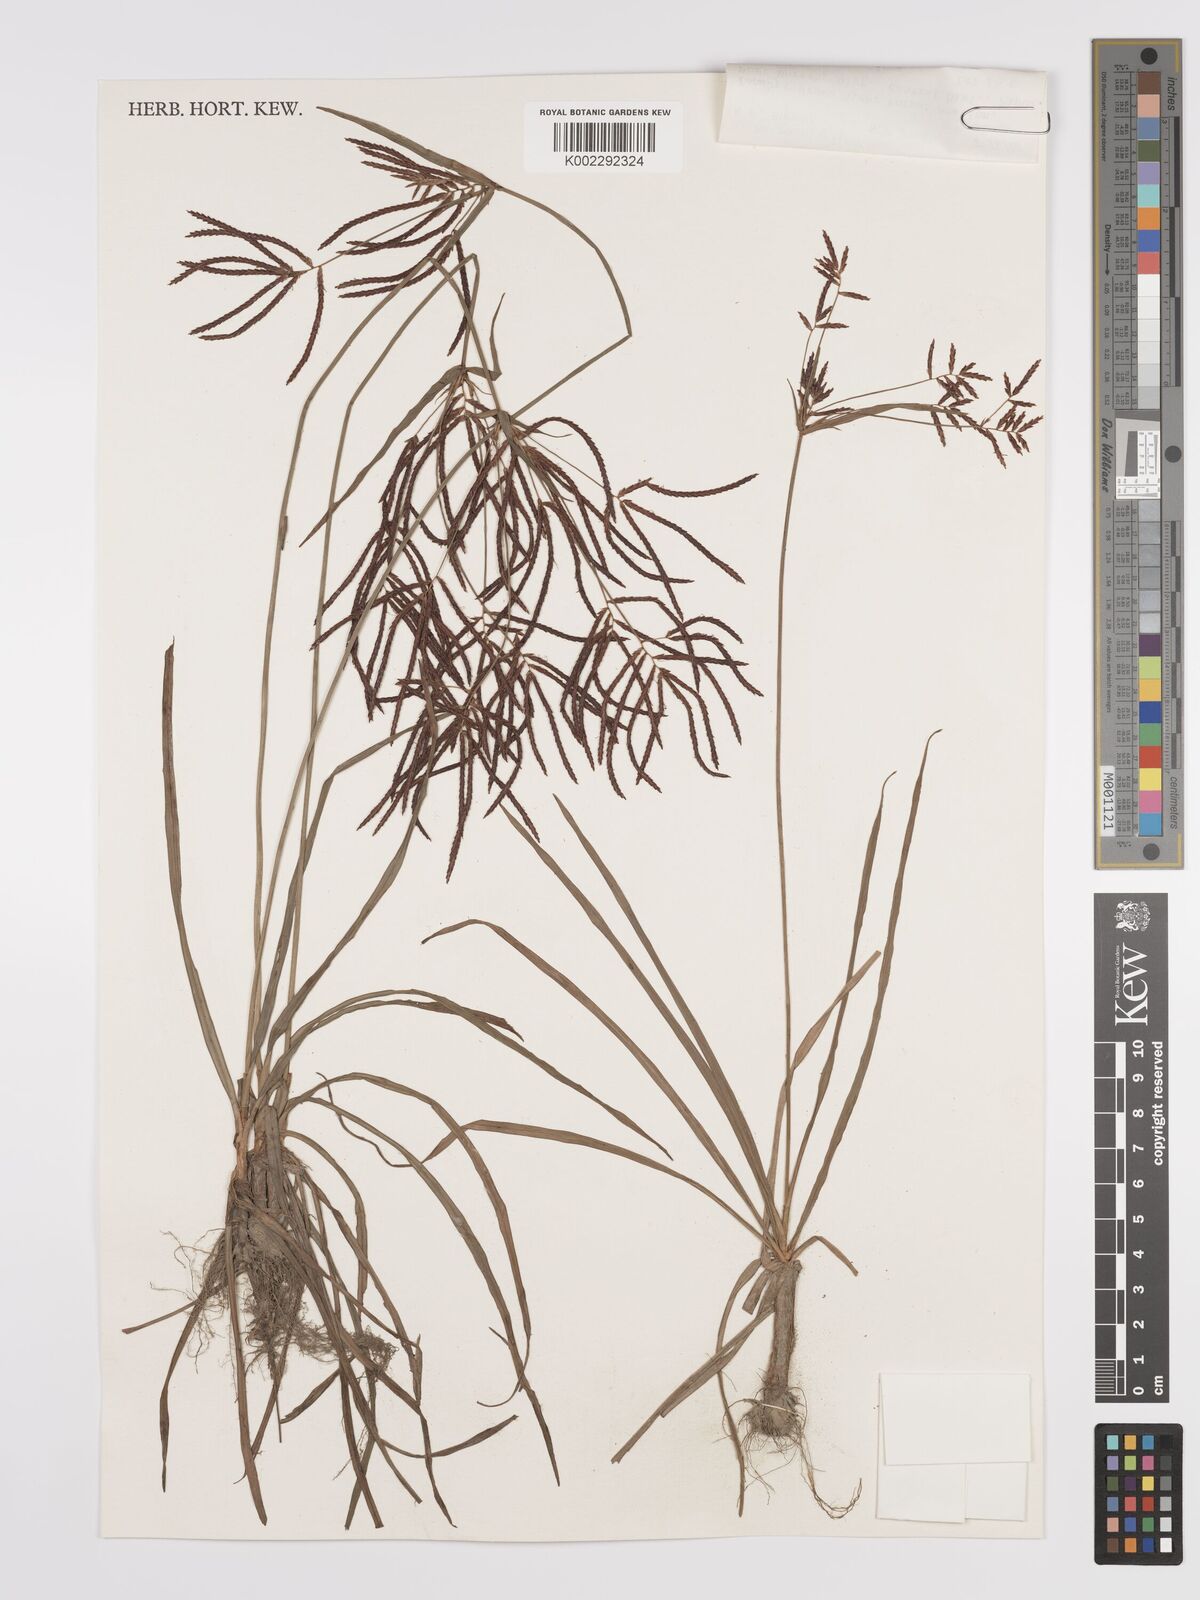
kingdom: Plantae
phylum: Tracheophyta
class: Liliopsida
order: Poales
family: Cyperaceae
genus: Cyperus
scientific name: Cyperus rotundus
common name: Nutgrass
